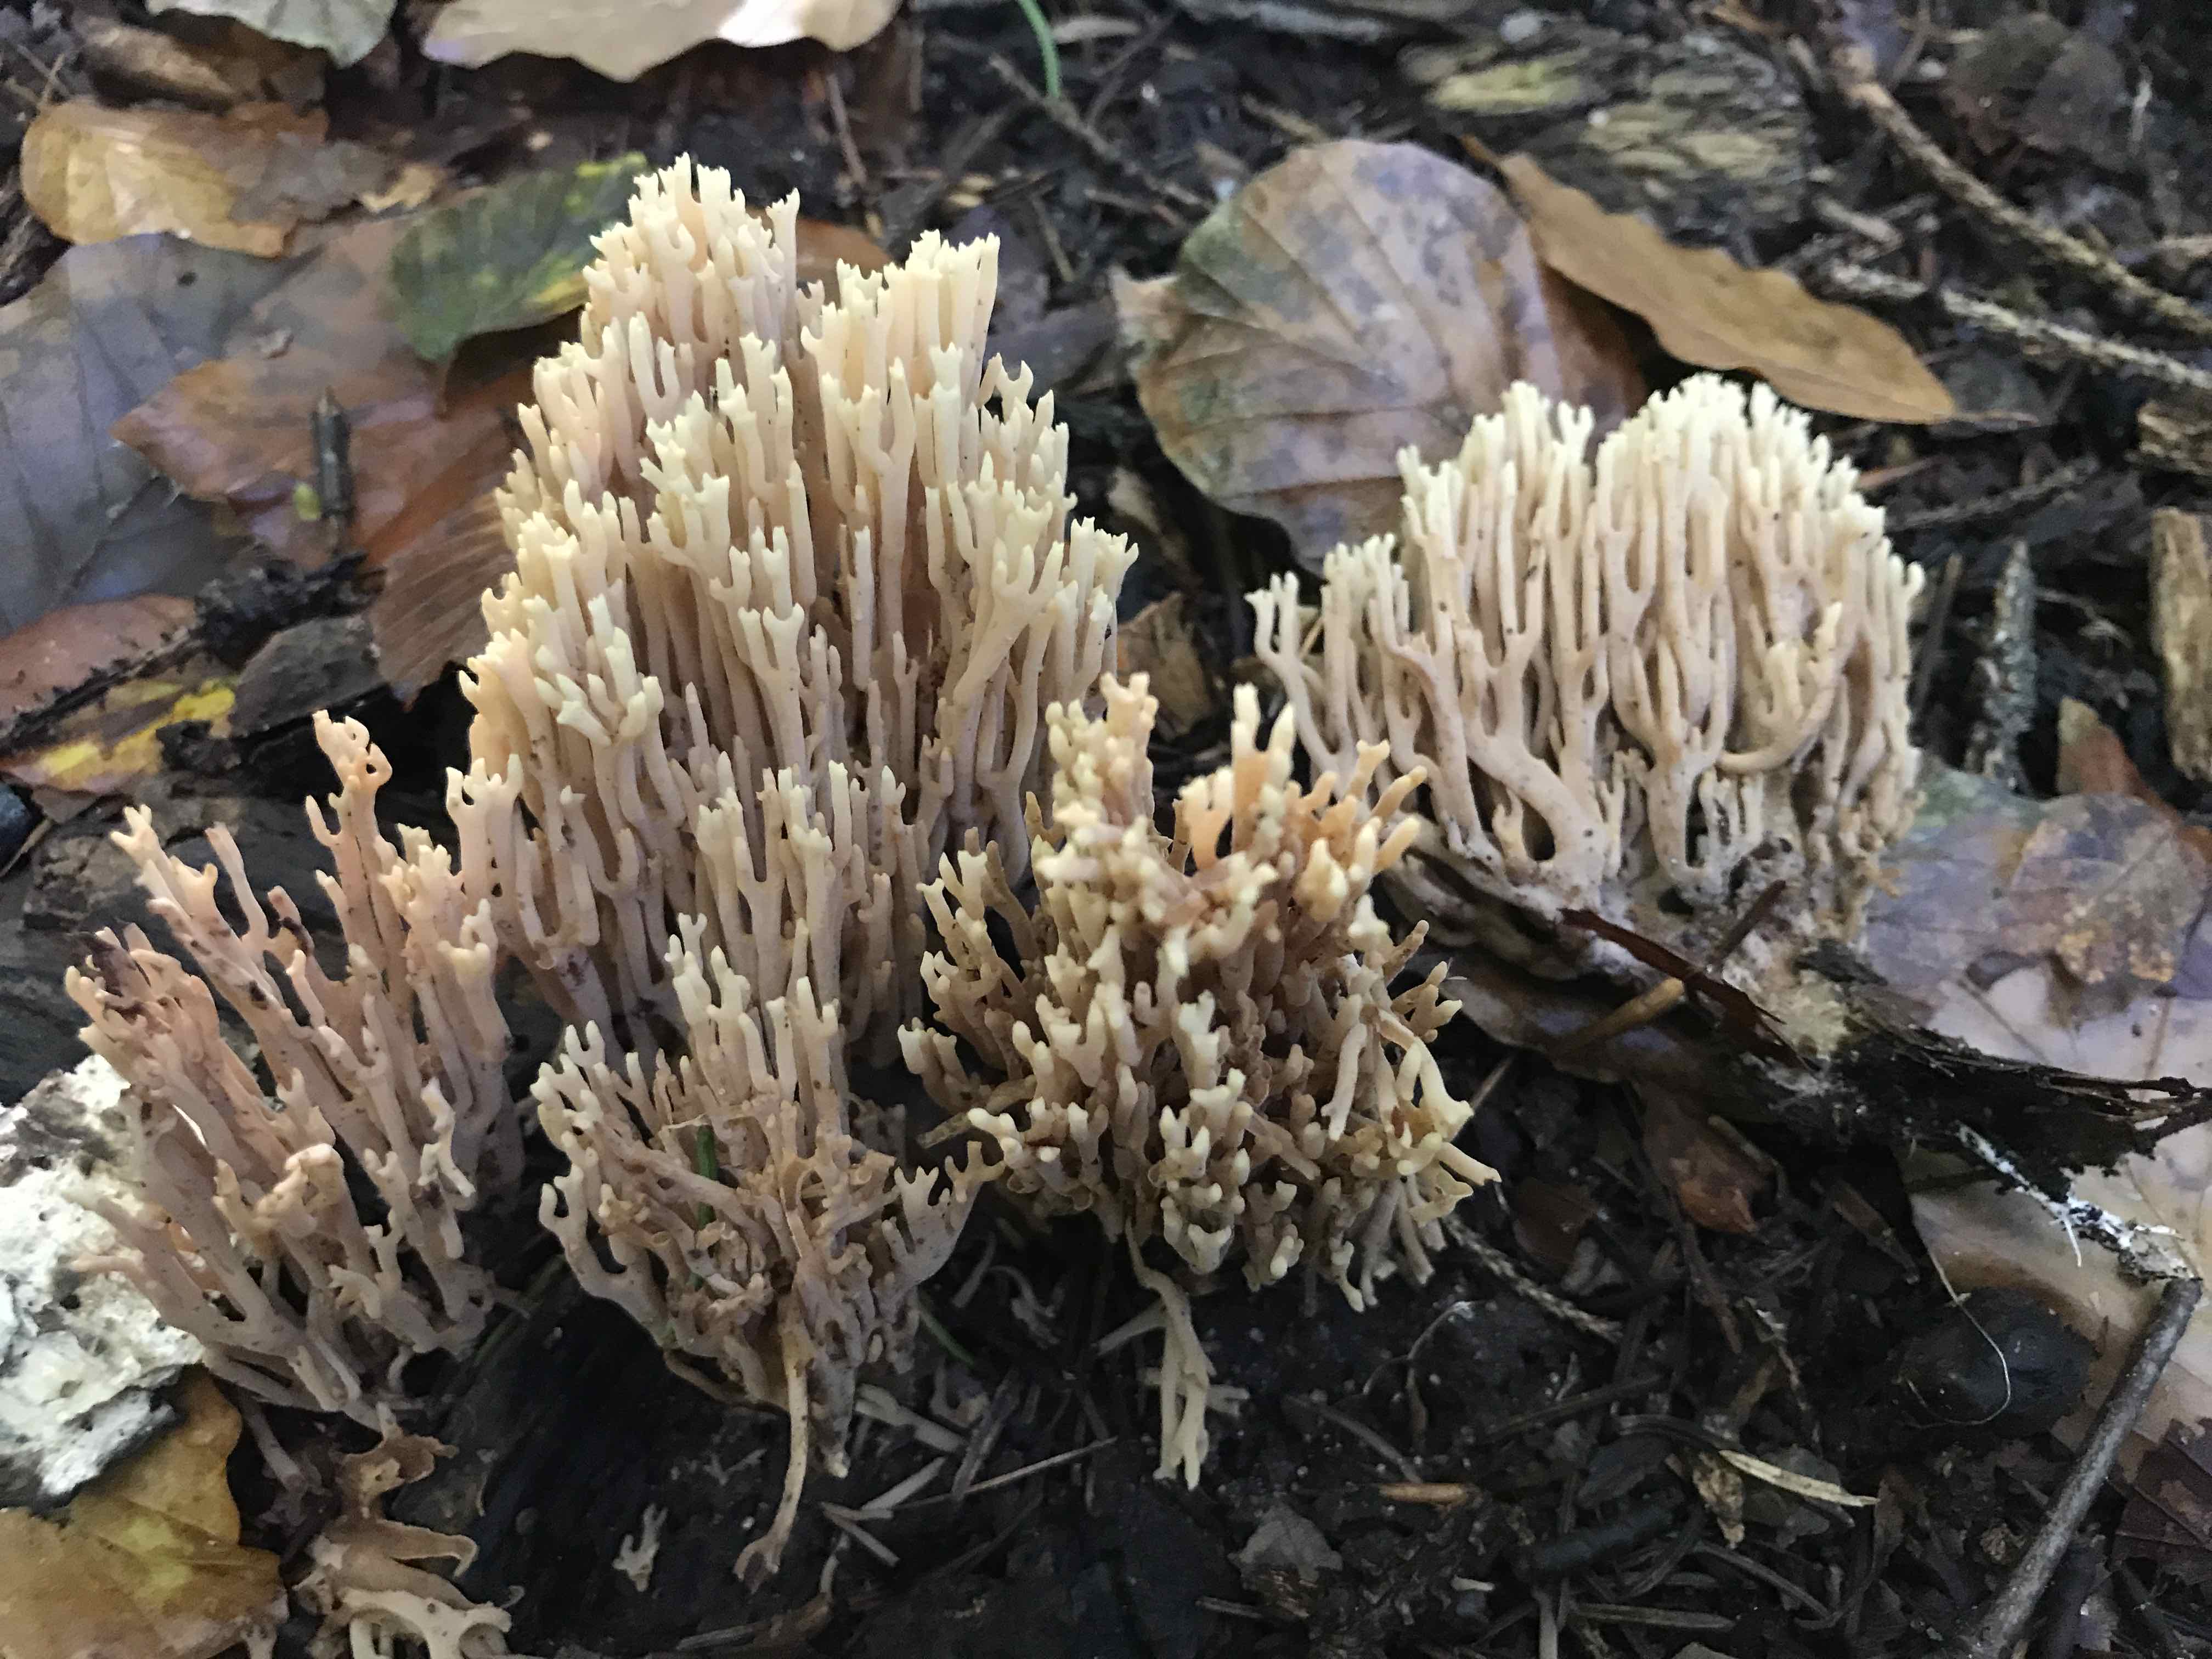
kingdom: Fungi
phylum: Basidiomycota
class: Agaricomycetes
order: Gomphales
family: Gomphaceae
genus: Ramaria
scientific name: Ramaria stricta
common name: rank koralsvamp
